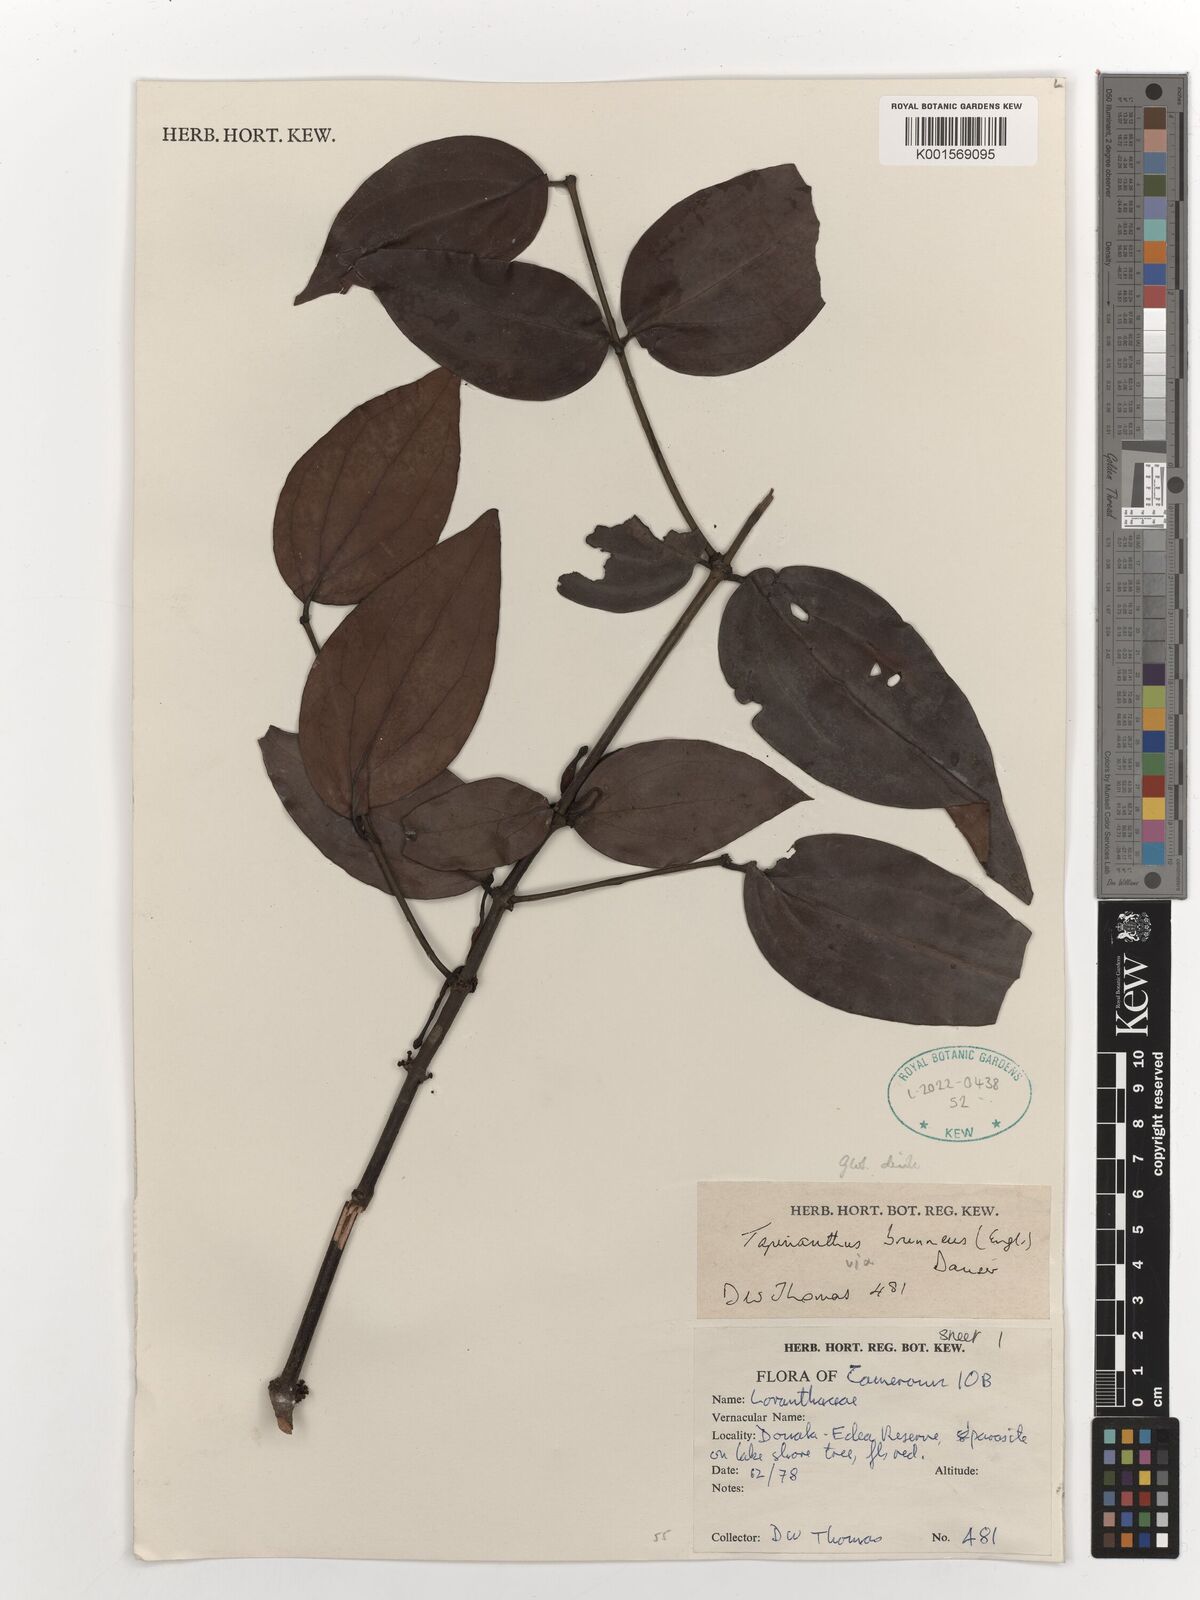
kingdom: Plantae
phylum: Tracheophyta
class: Magnoliopsida
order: Santalales
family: Loranthaceae
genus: Agelanthus
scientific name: Agelanthus brunneus
